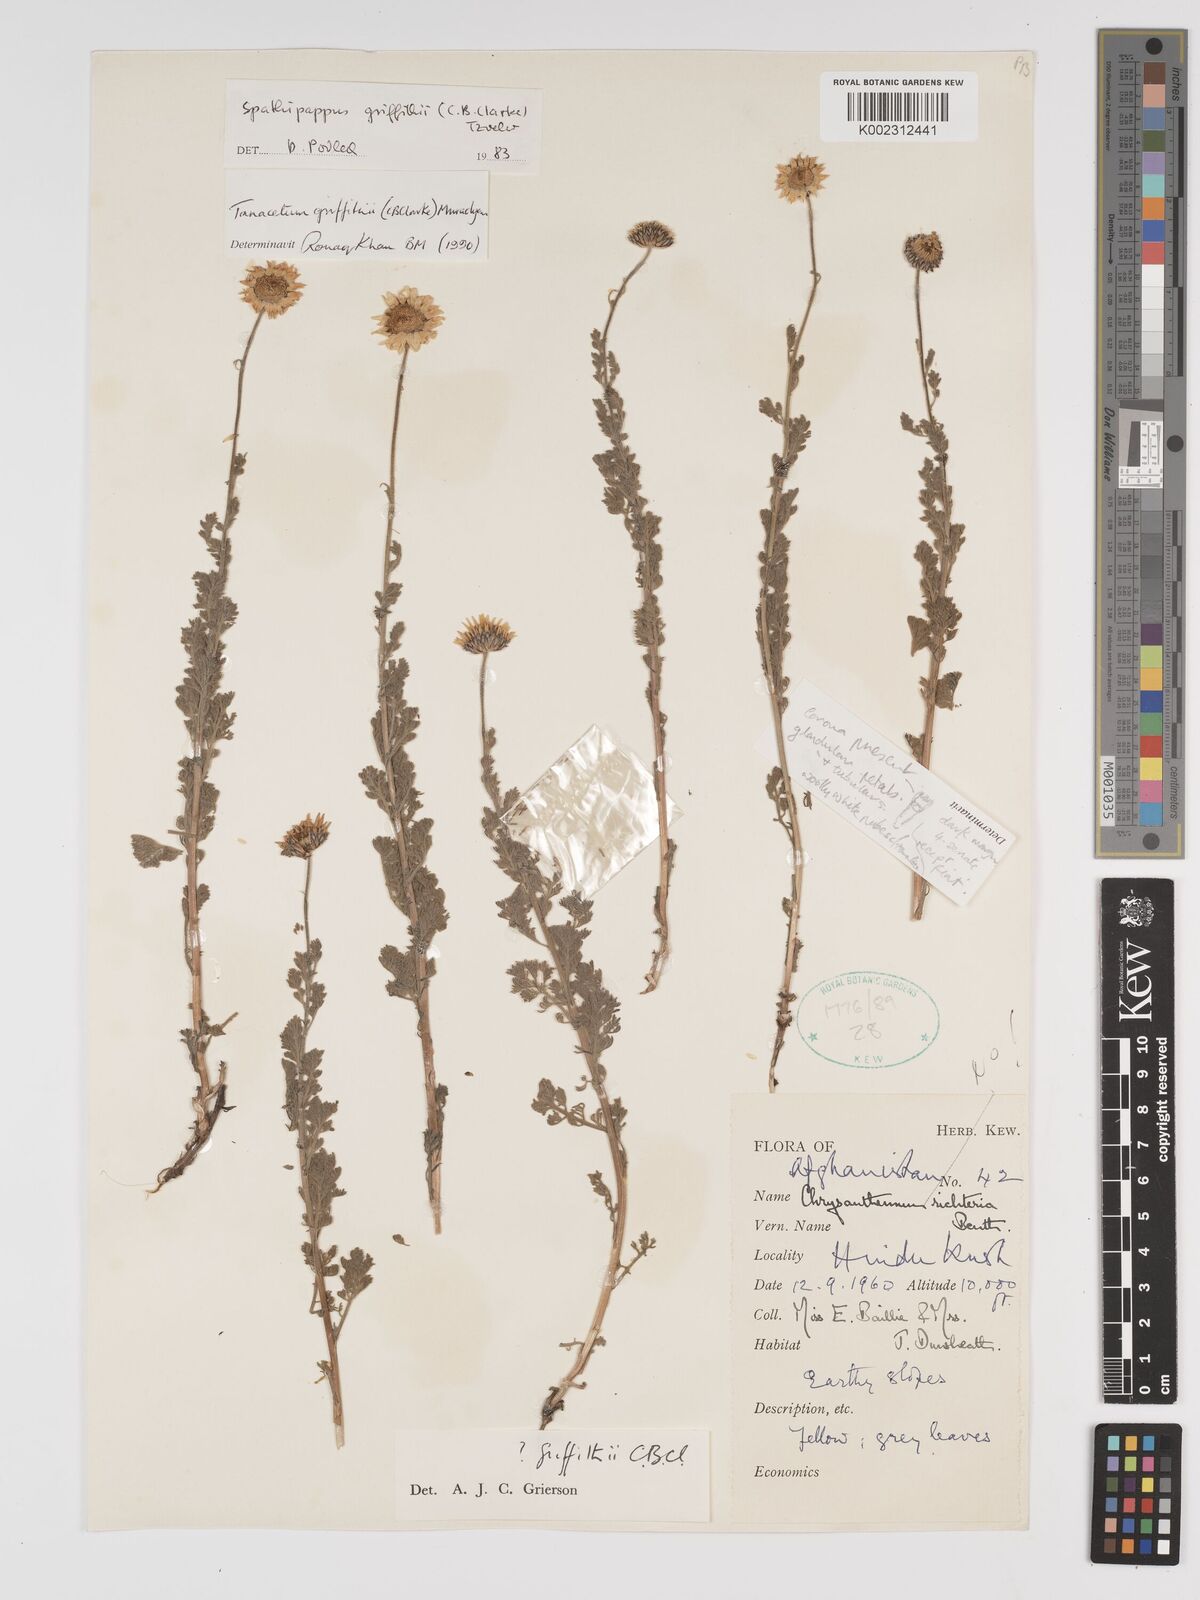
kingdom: Plantae
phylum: Tracheophyta
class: Magnoliopsida
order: Asterales
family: Asteraceae
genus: Tanacetum
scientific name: Tanacetum griffithii
